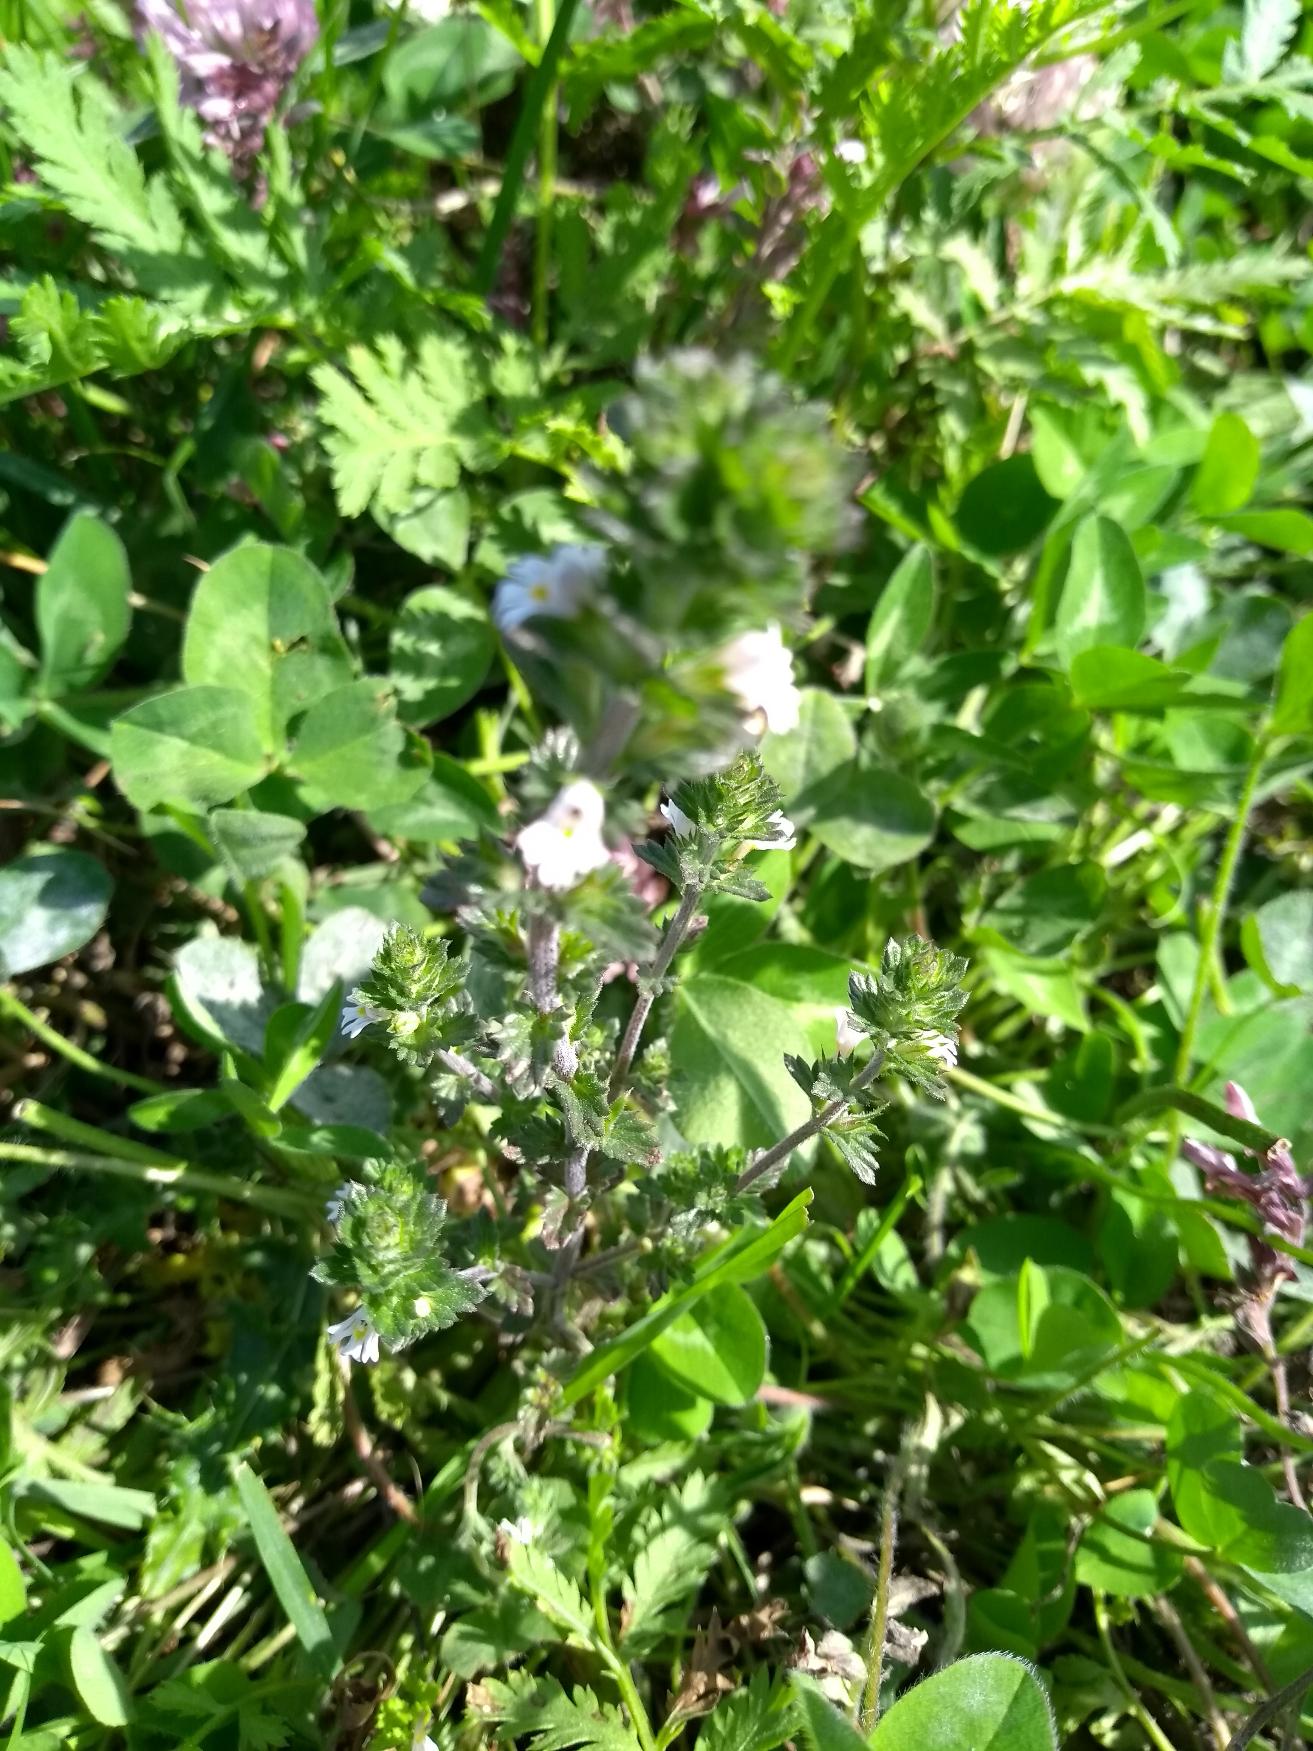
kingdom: Plantae
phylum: Tracheophyta
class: Magnoliopsida
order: Lamiales
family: Orobanchaceae
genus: Euphrasia
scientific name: Euphrasia nemorosa
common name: Kort øjentrøst
